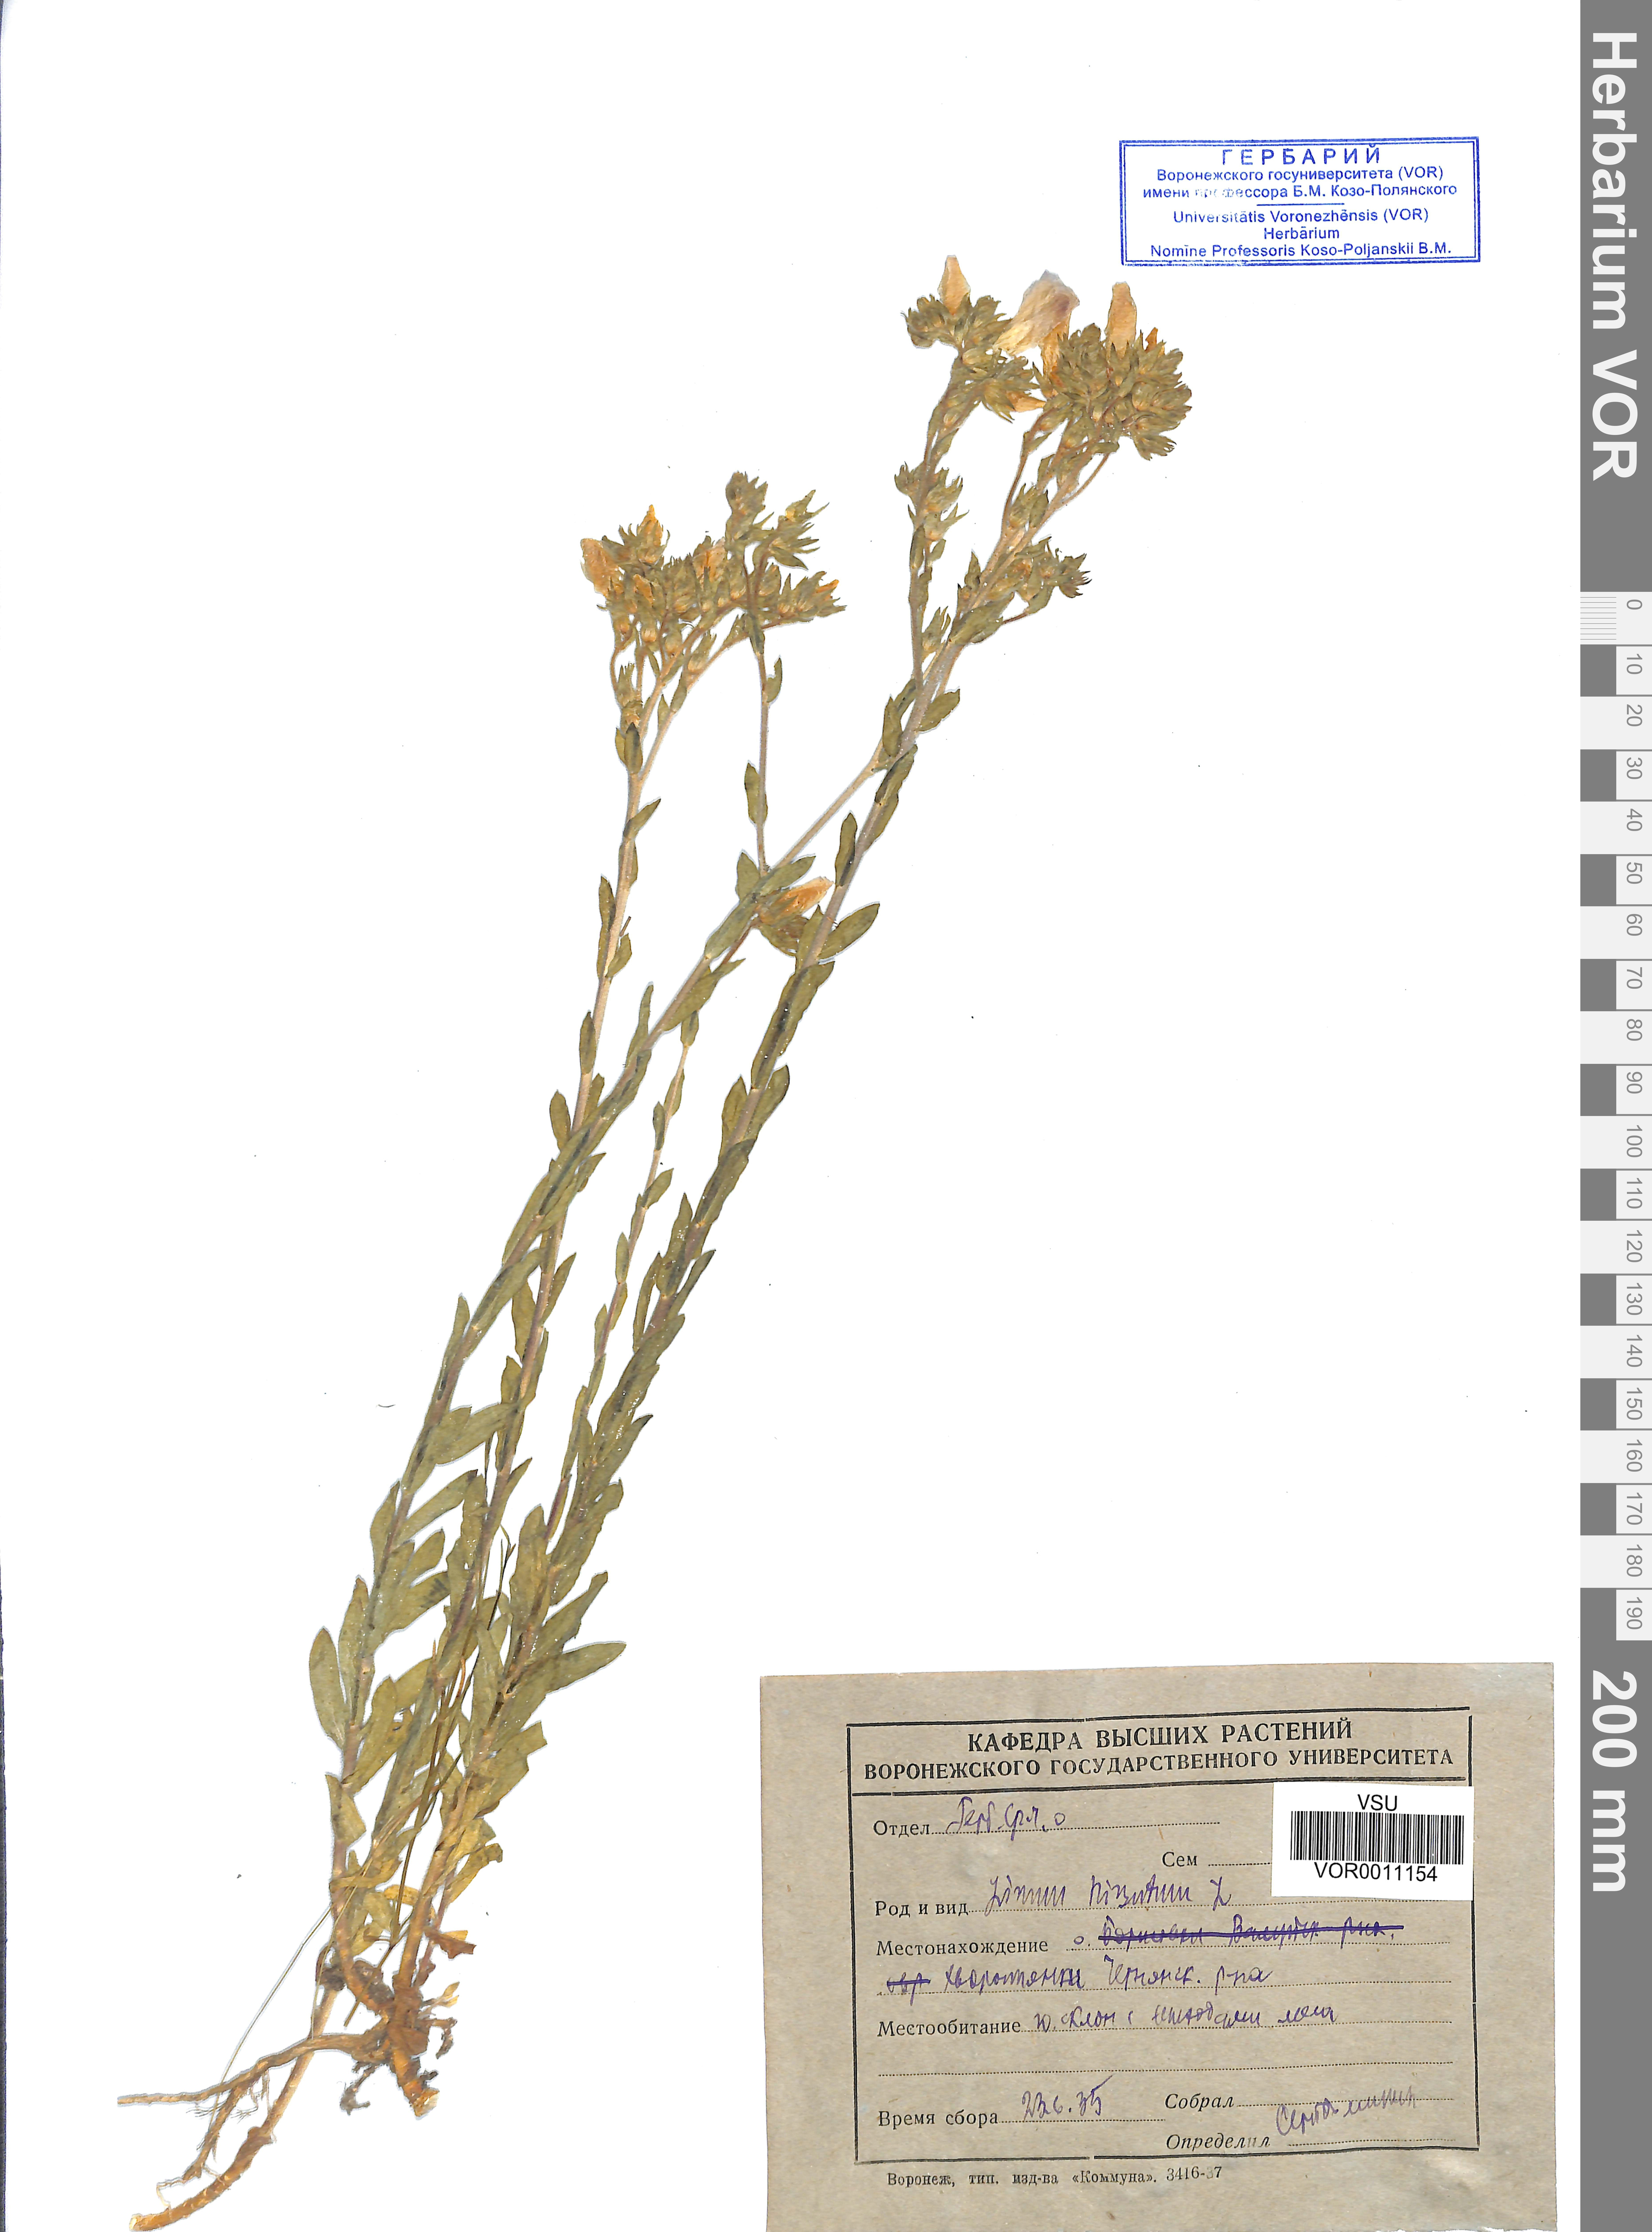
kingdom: Plantae
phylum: Tracheophyta
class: Magnoliopsida
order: Malpighiales
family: Linaceae
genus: Linum
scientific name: Linum hirsutum
